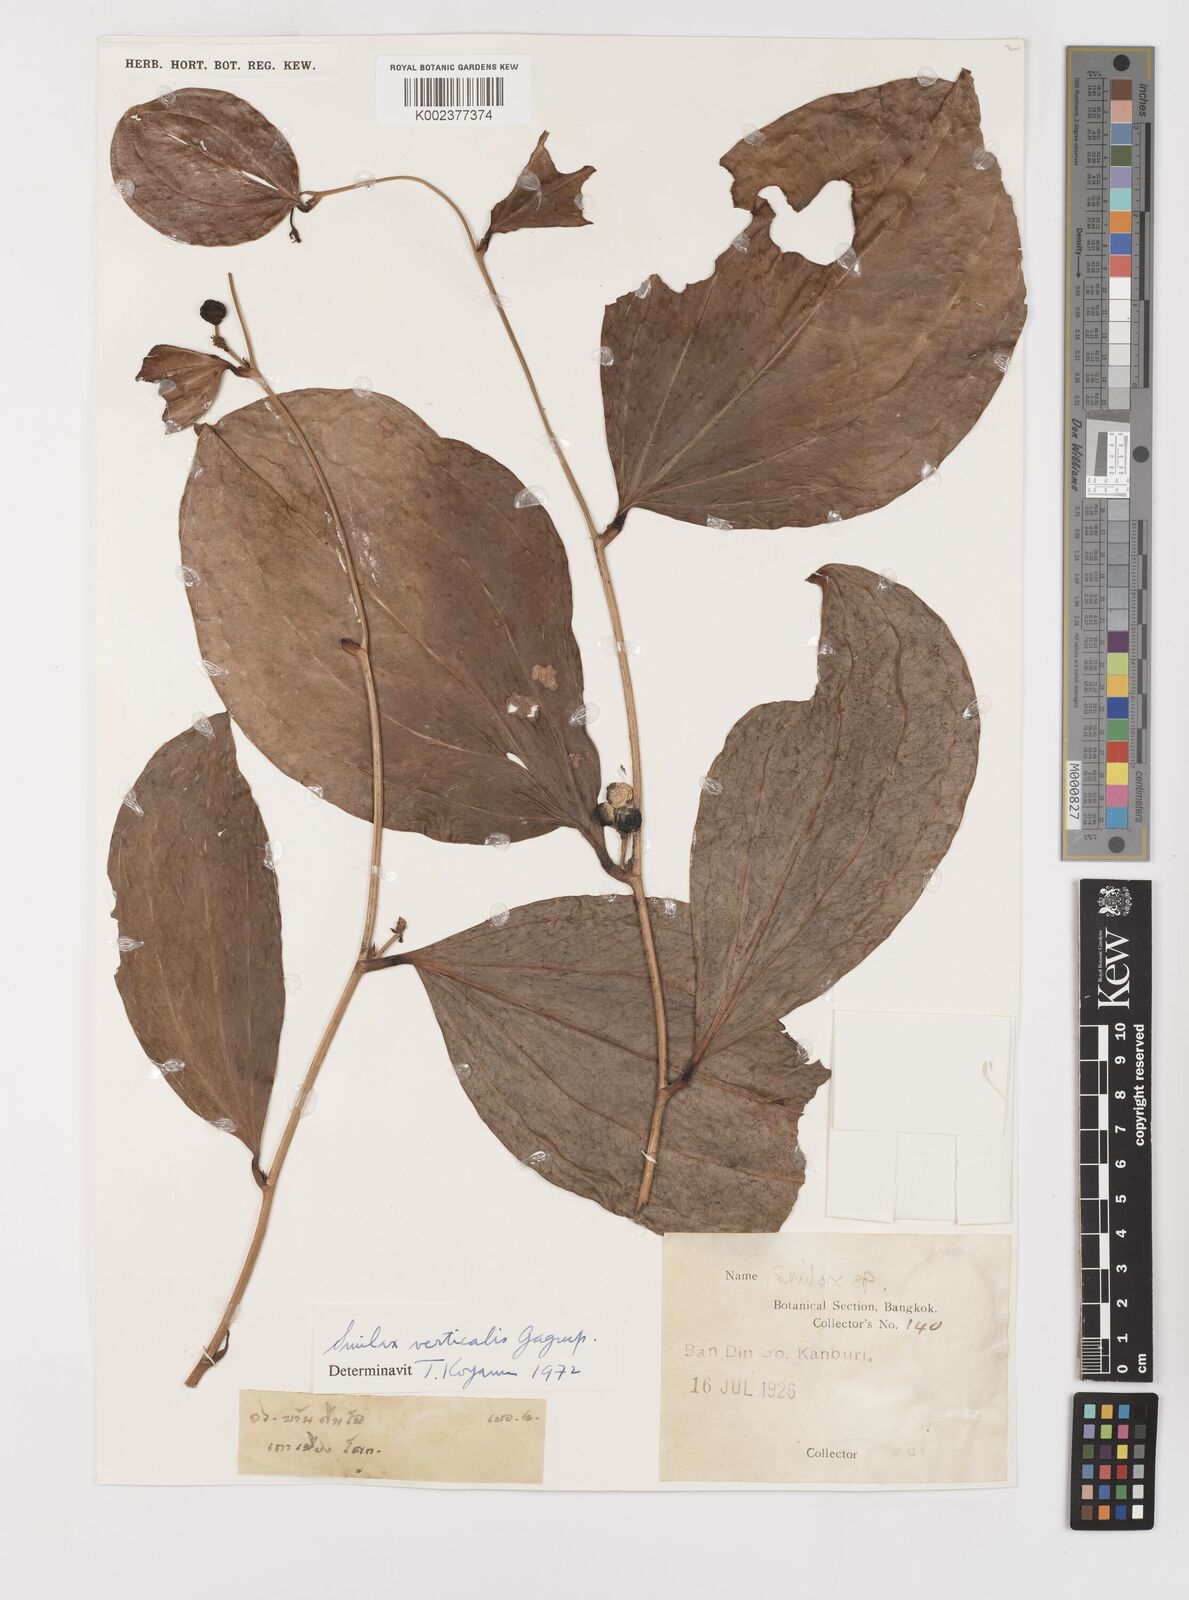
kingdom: Plantae
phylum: Tracheophyta
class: Liliopsida
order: Liliales
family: Smilacaceae
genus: Smilax
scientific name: Smilax verticalis
